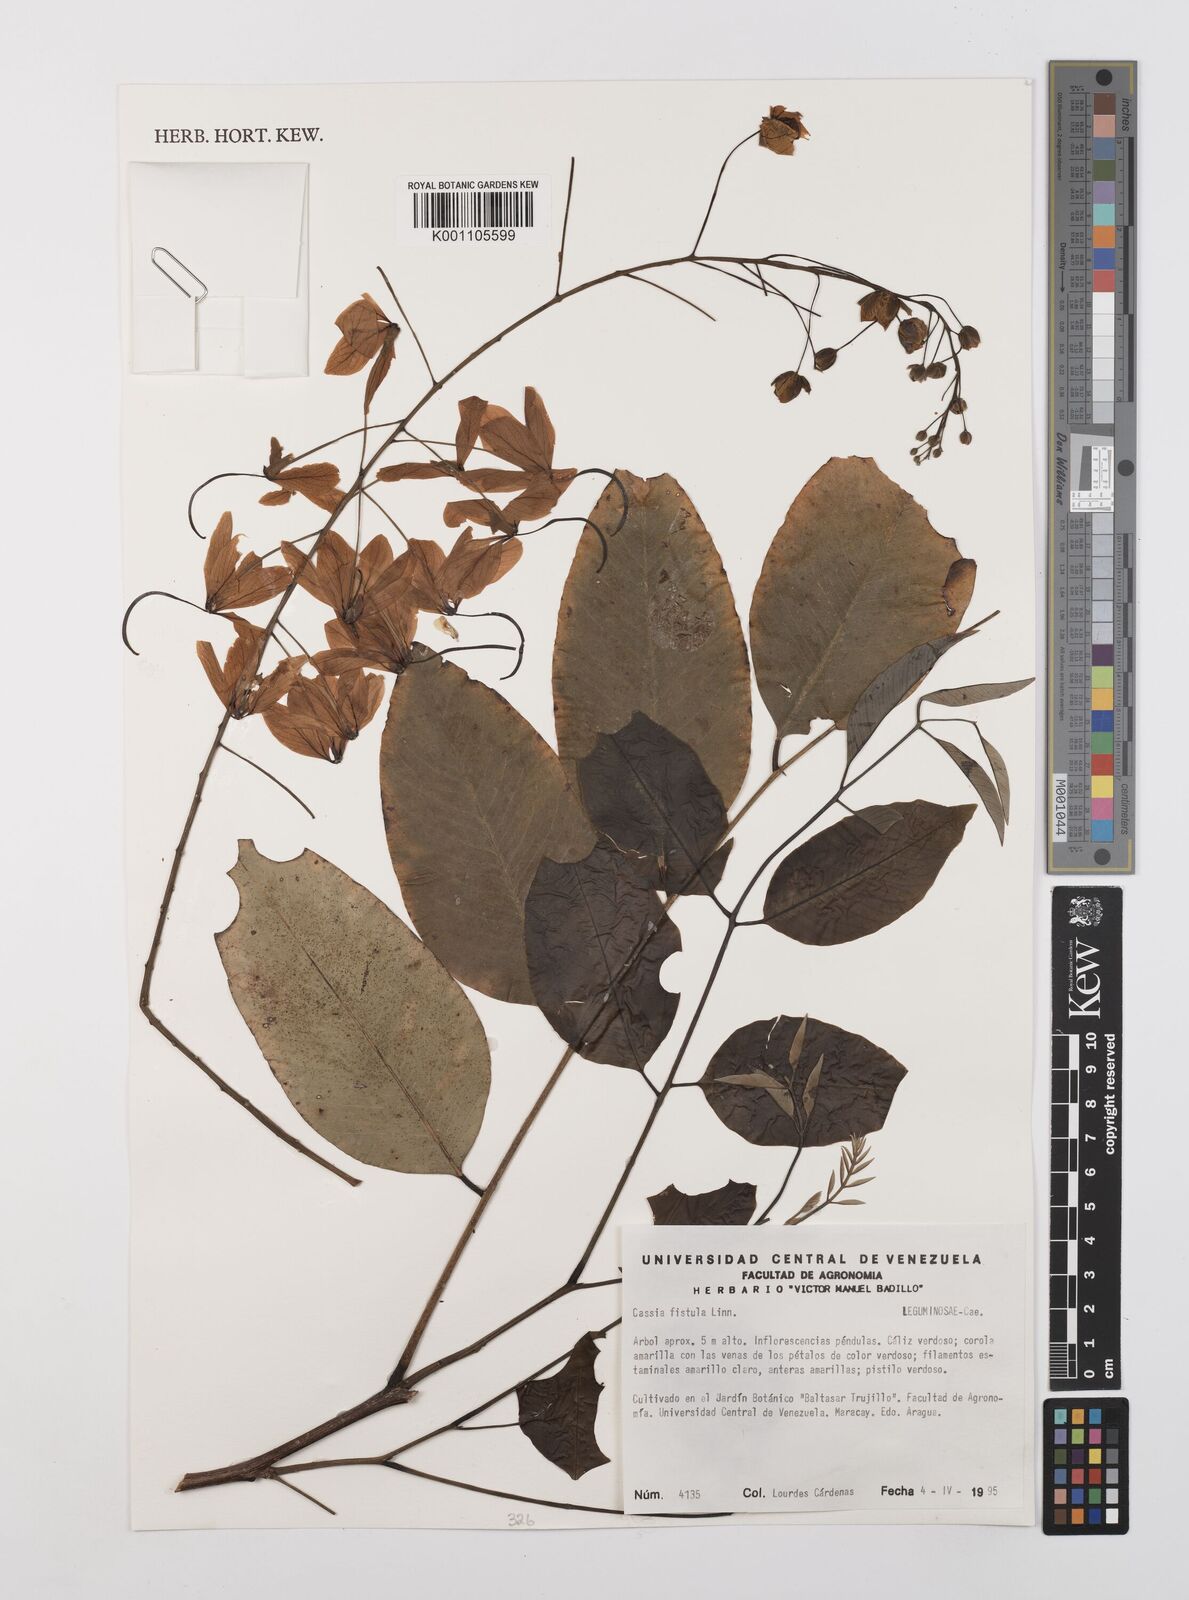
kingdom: Plantae
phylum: Tracheophyta
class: Magnoliopsida
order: Fabales
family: Fabaceae
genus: Cassia
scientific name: Cassia fistula
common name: Golden shower
